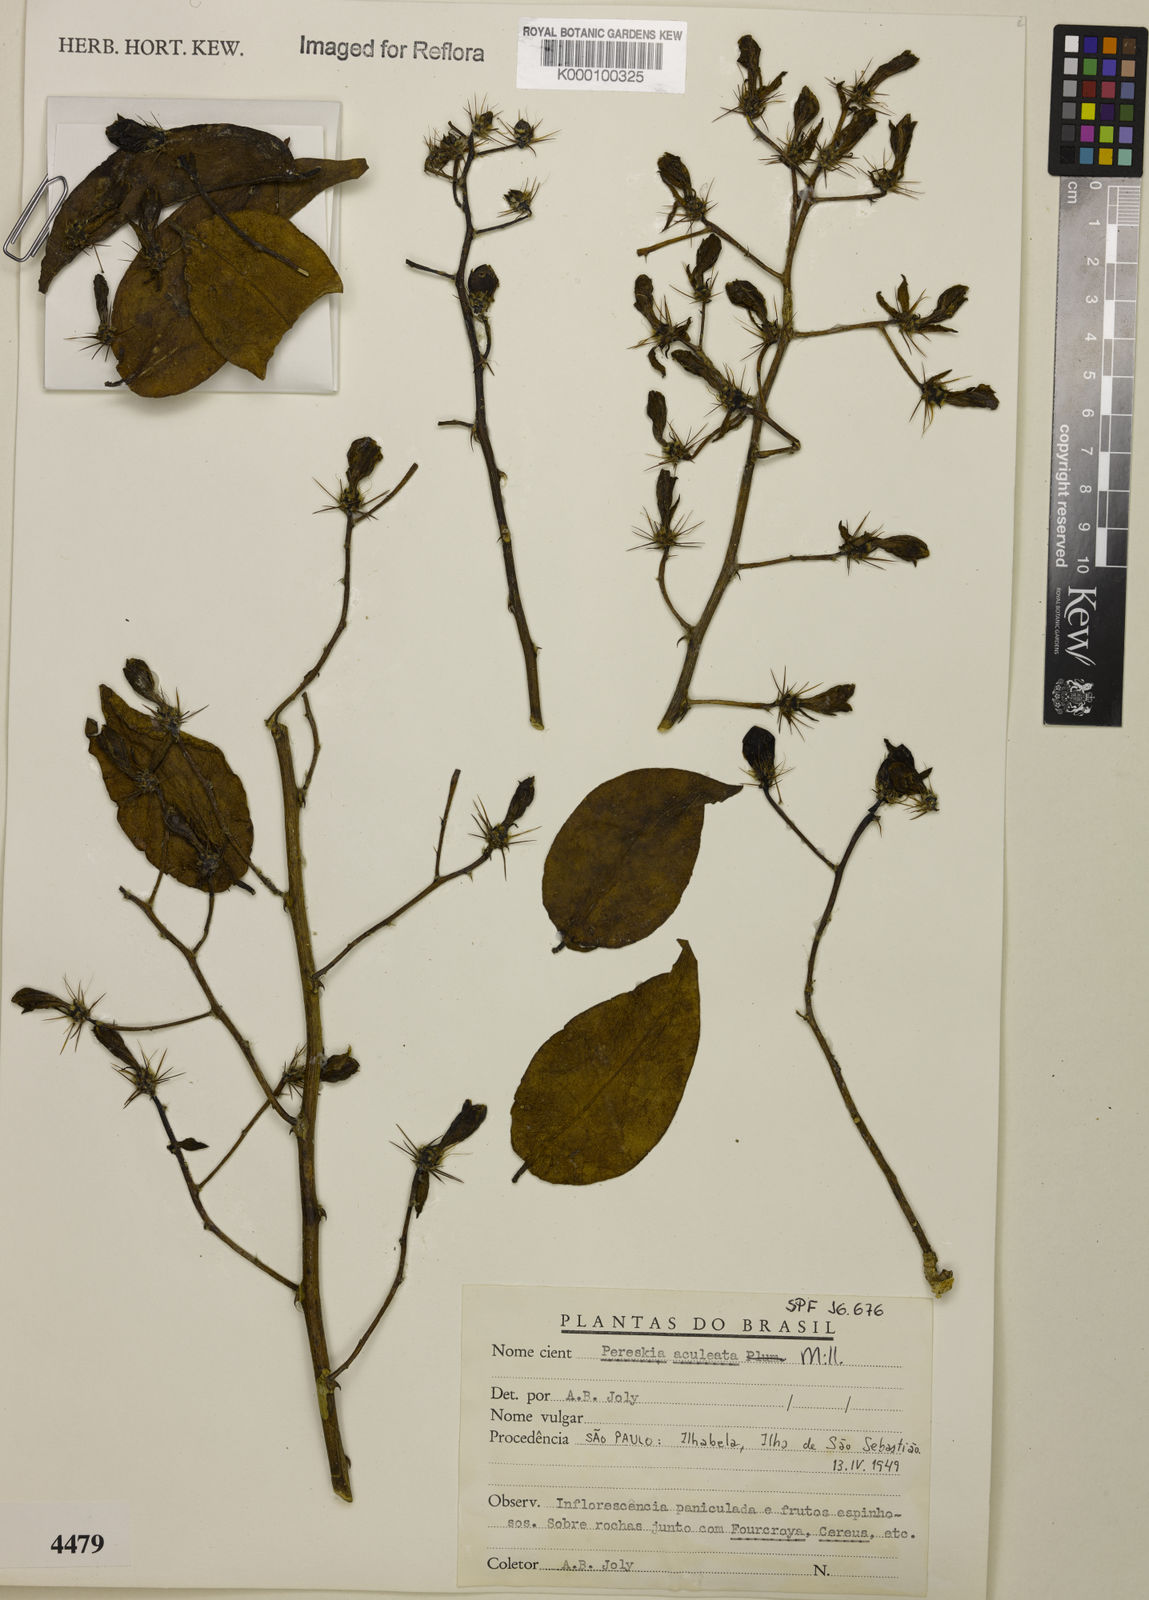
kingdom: Plantae
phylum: Tracheophyta
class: Magnoliopsida
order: Caryophyllales
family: Cactaceae
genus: Pereskia
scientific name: Pereskia aculeata
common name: Barbados gooseberry
